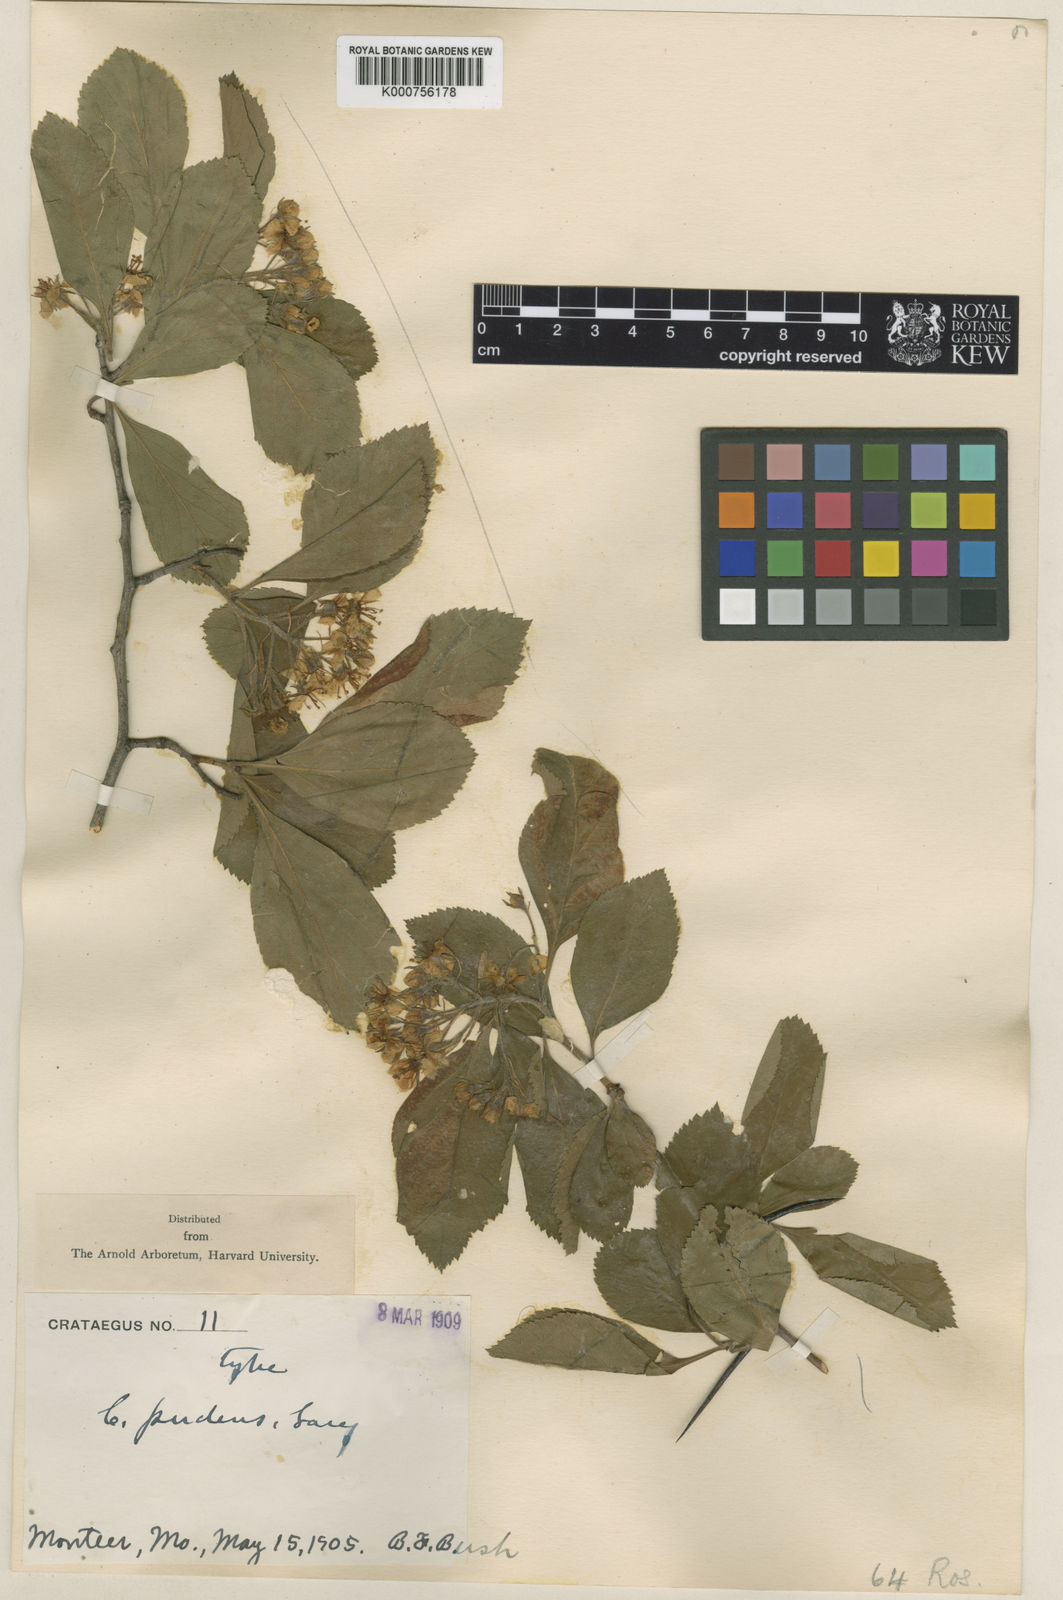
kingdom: Plantae
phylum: Tracheophyta
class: Magnoliopsida
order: Rosales
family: Rosaceae
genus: Crataegus
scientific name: Crataegus pudens
